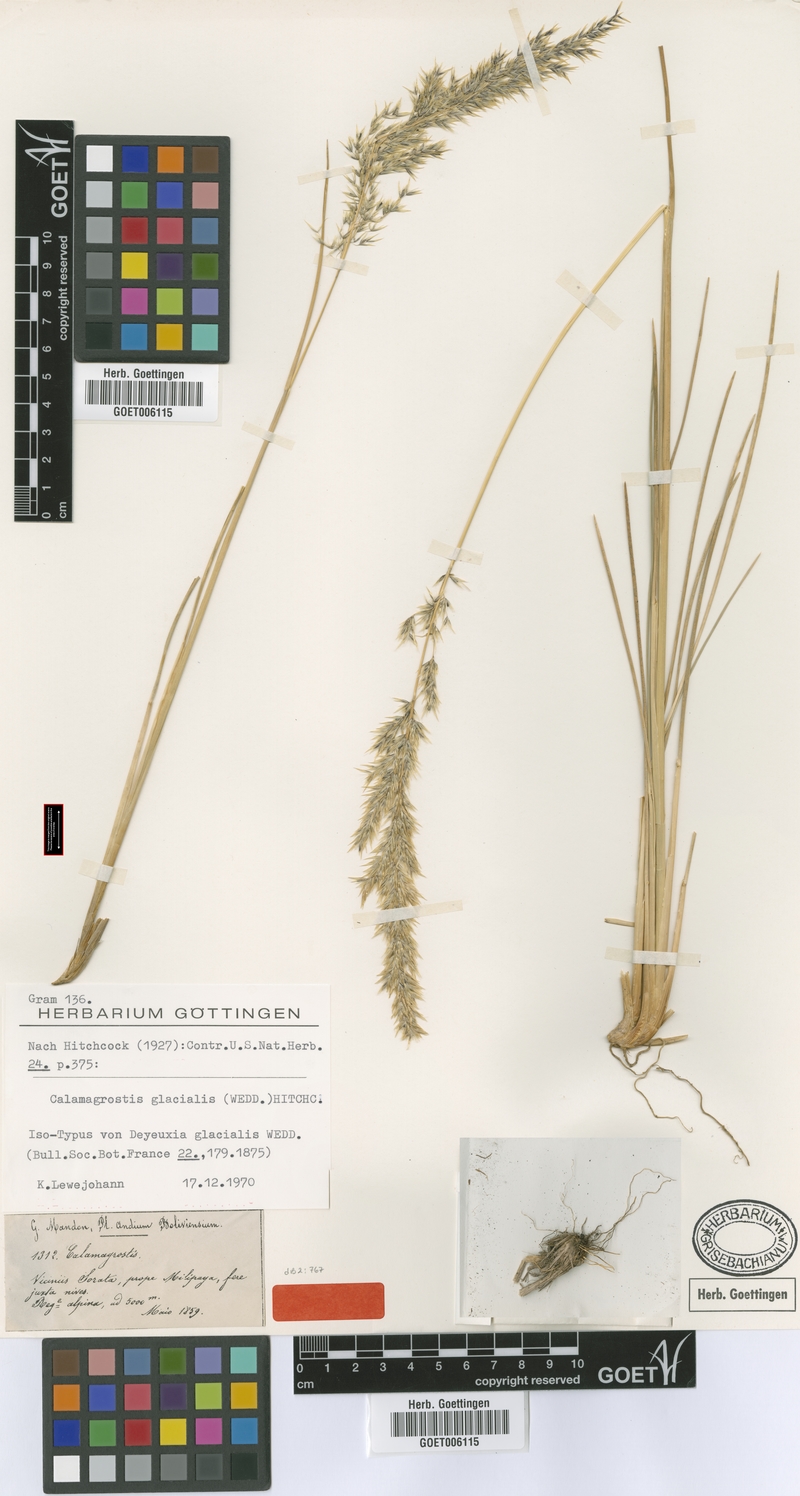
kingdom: Plantae
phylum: Tracheophyta
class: Liliopsida
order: Poales
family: Poaceae
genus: Cinnagrostis
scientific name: Cinnagrostis glacialis
